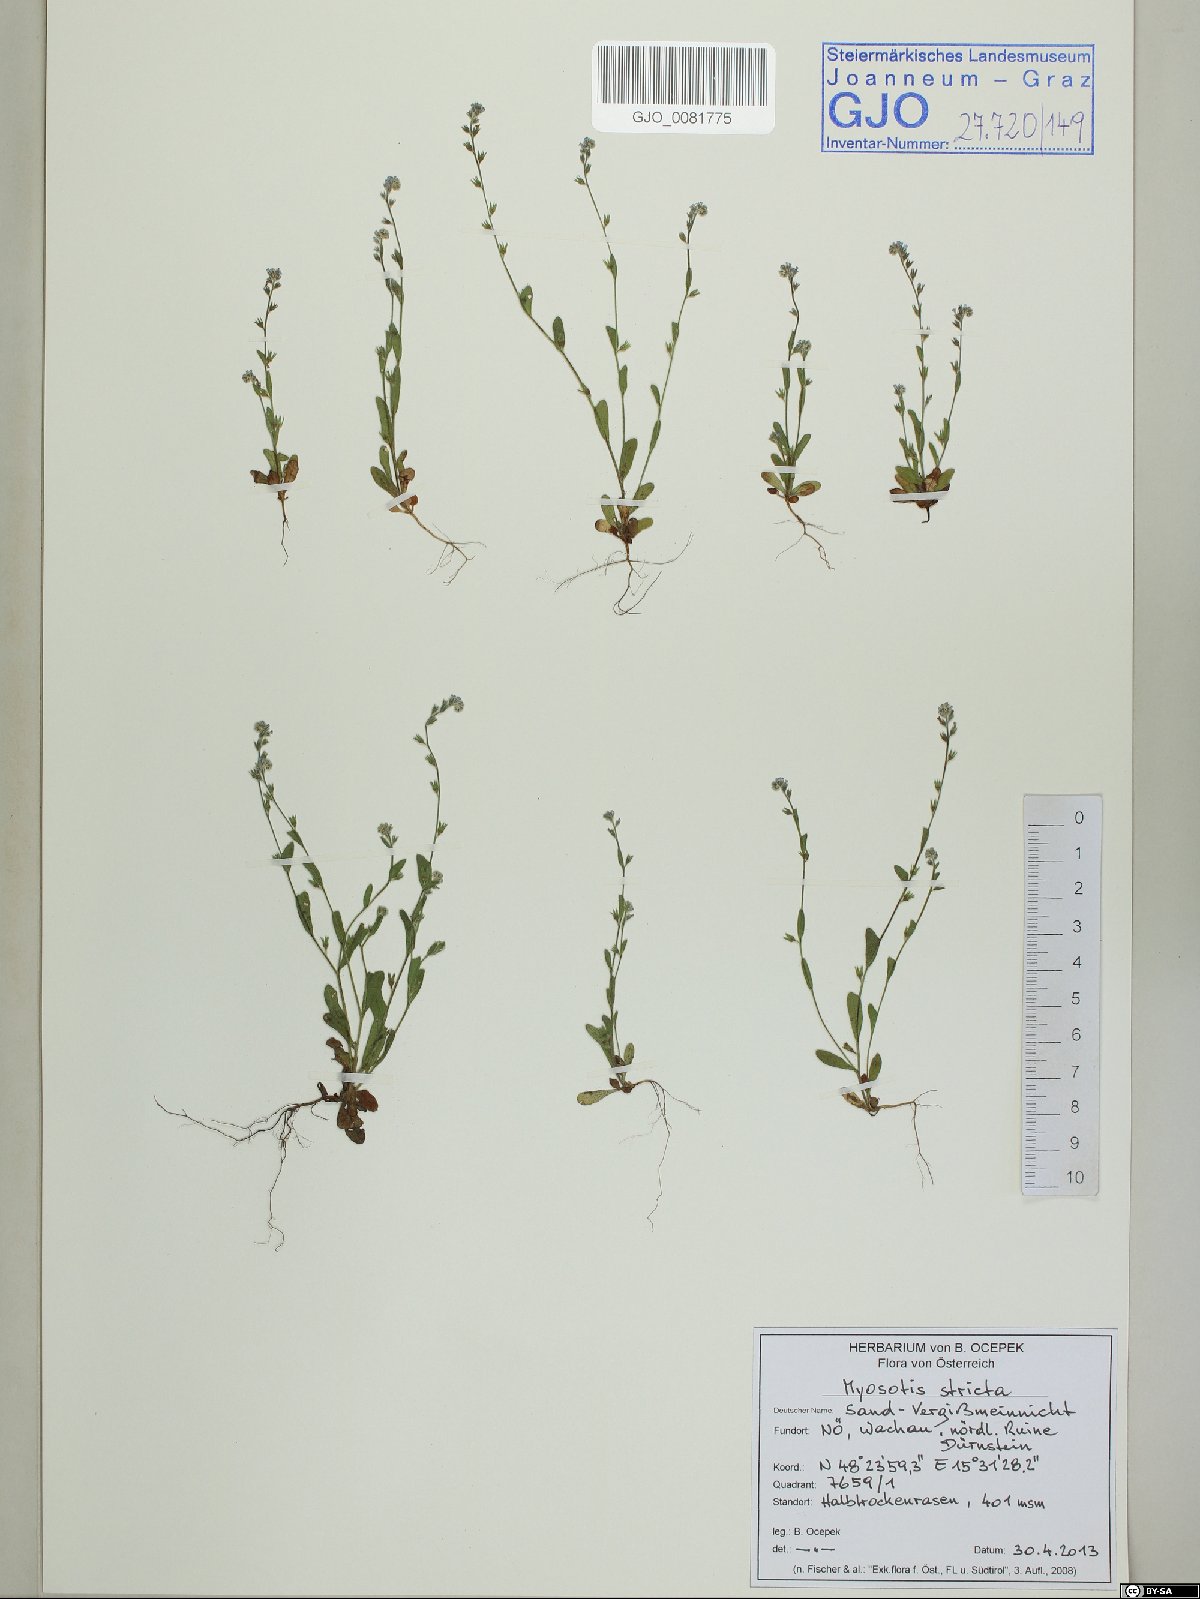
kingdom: Plantae
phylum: Tracheophyta
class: Magnoliopsida
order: Boraginales
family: Boraginaceae
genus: Myosotis
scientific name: Myosotis stricta
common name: Strict forget-me-not
